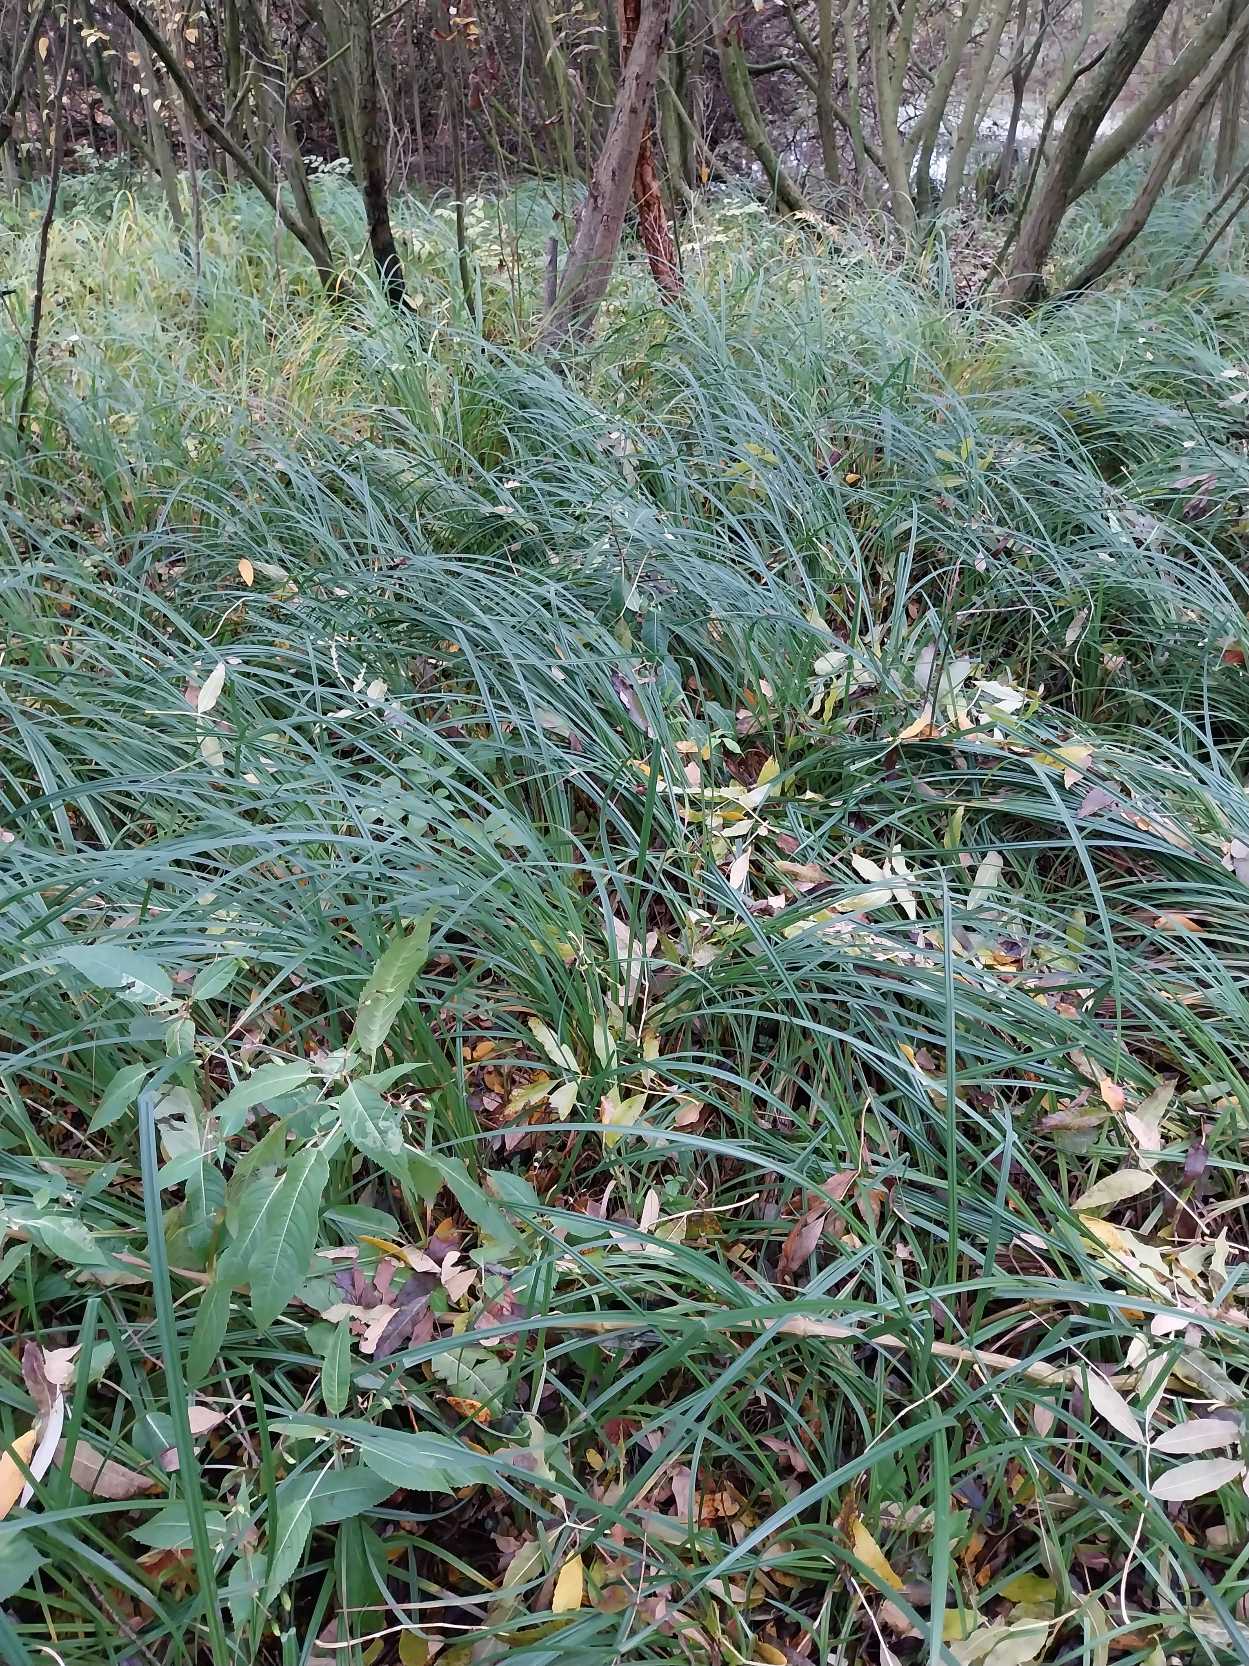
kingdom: Plantae
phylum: Tracheophyta
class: Liliopsida
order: Poales
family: Cyperaceae
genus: Carex
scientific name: Carex acutiformis
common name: Kær-star
